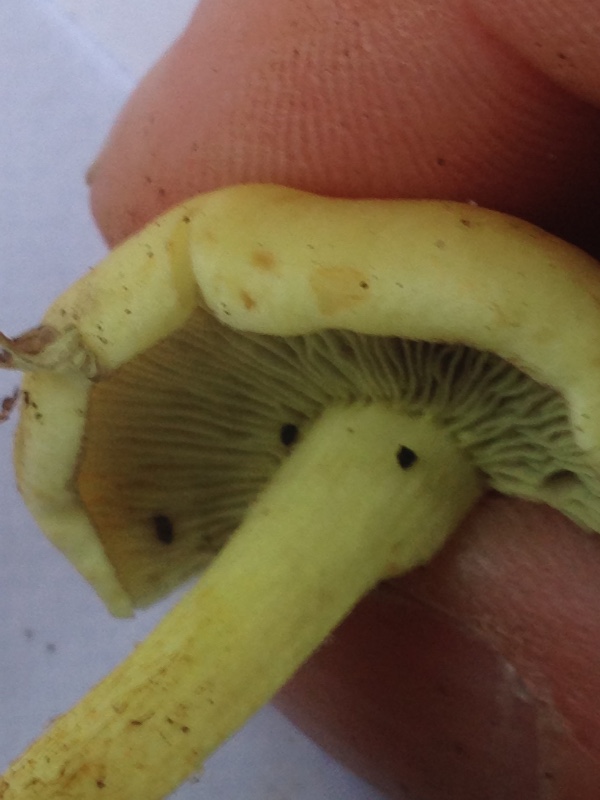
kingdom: Fungi
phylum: Basidiomycota
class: Agaricomycetes
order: Agaricales
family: Strophariaceae
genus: Hypholoma
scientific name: Hypholoma fasciculare
